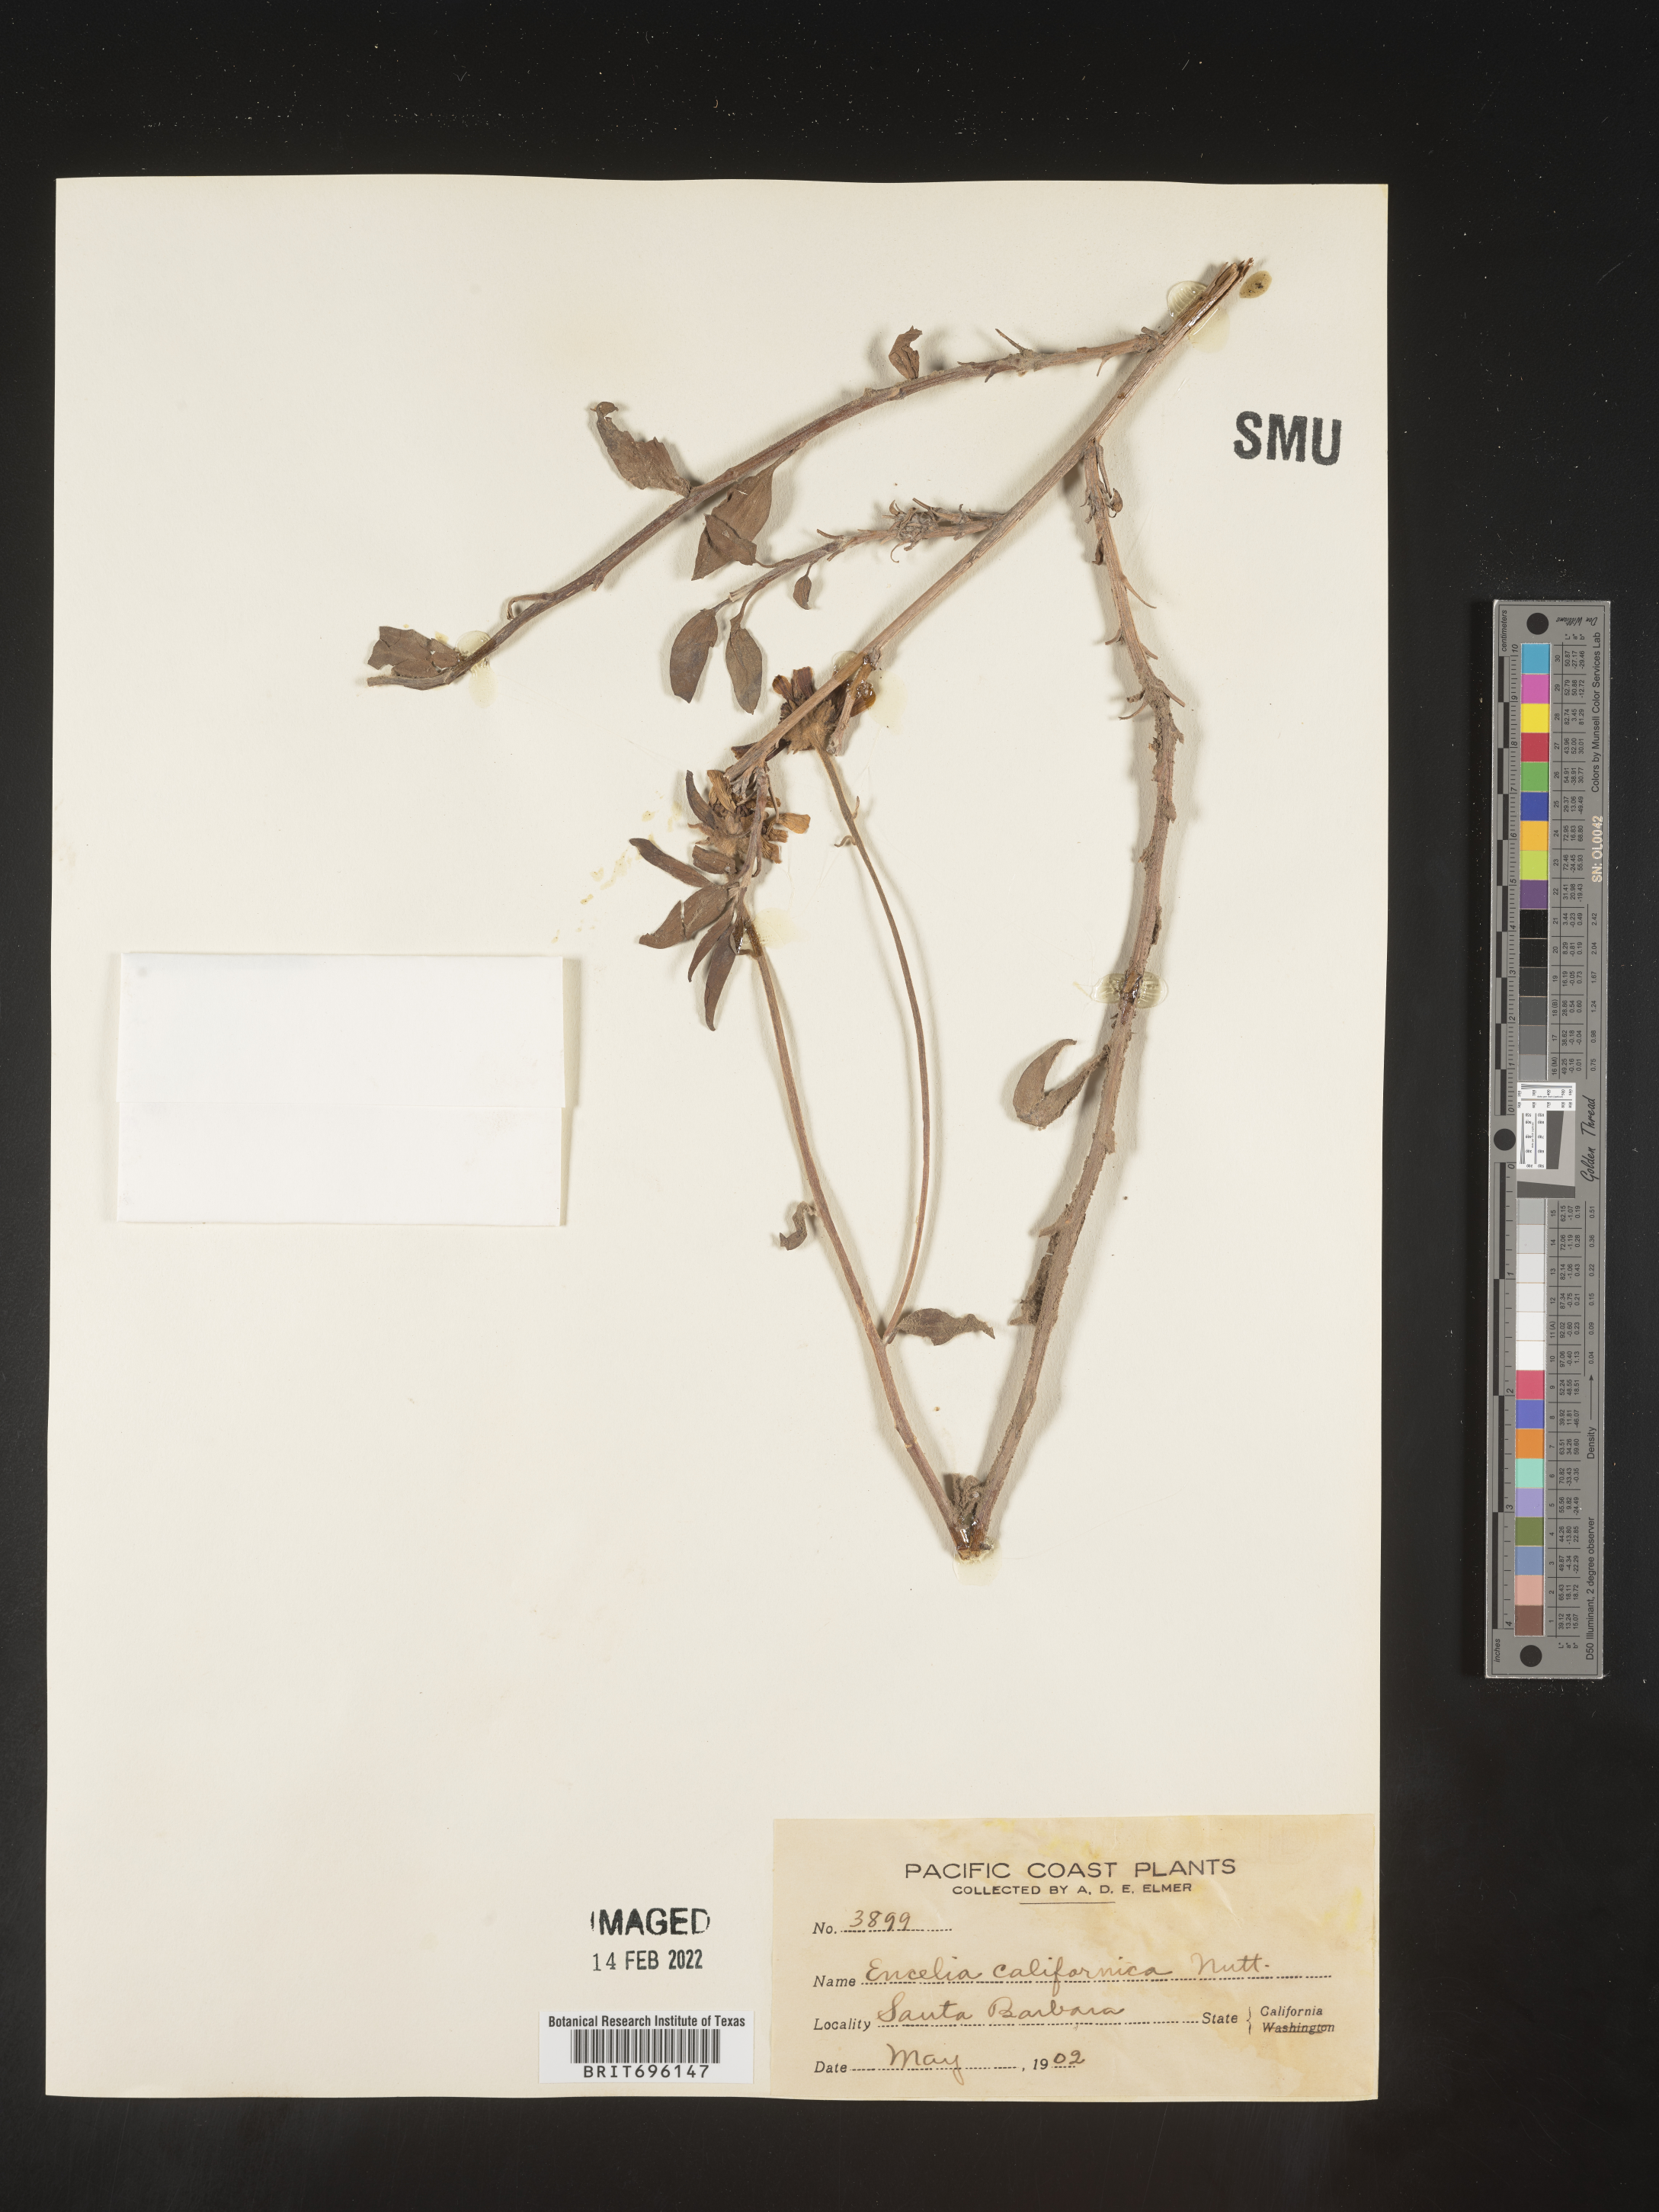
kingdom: Plantae
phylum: Tracheophyta
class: Magnoliopsida
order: Asterales
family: Asteraceae
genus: Encelia
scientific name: Encelia californica
